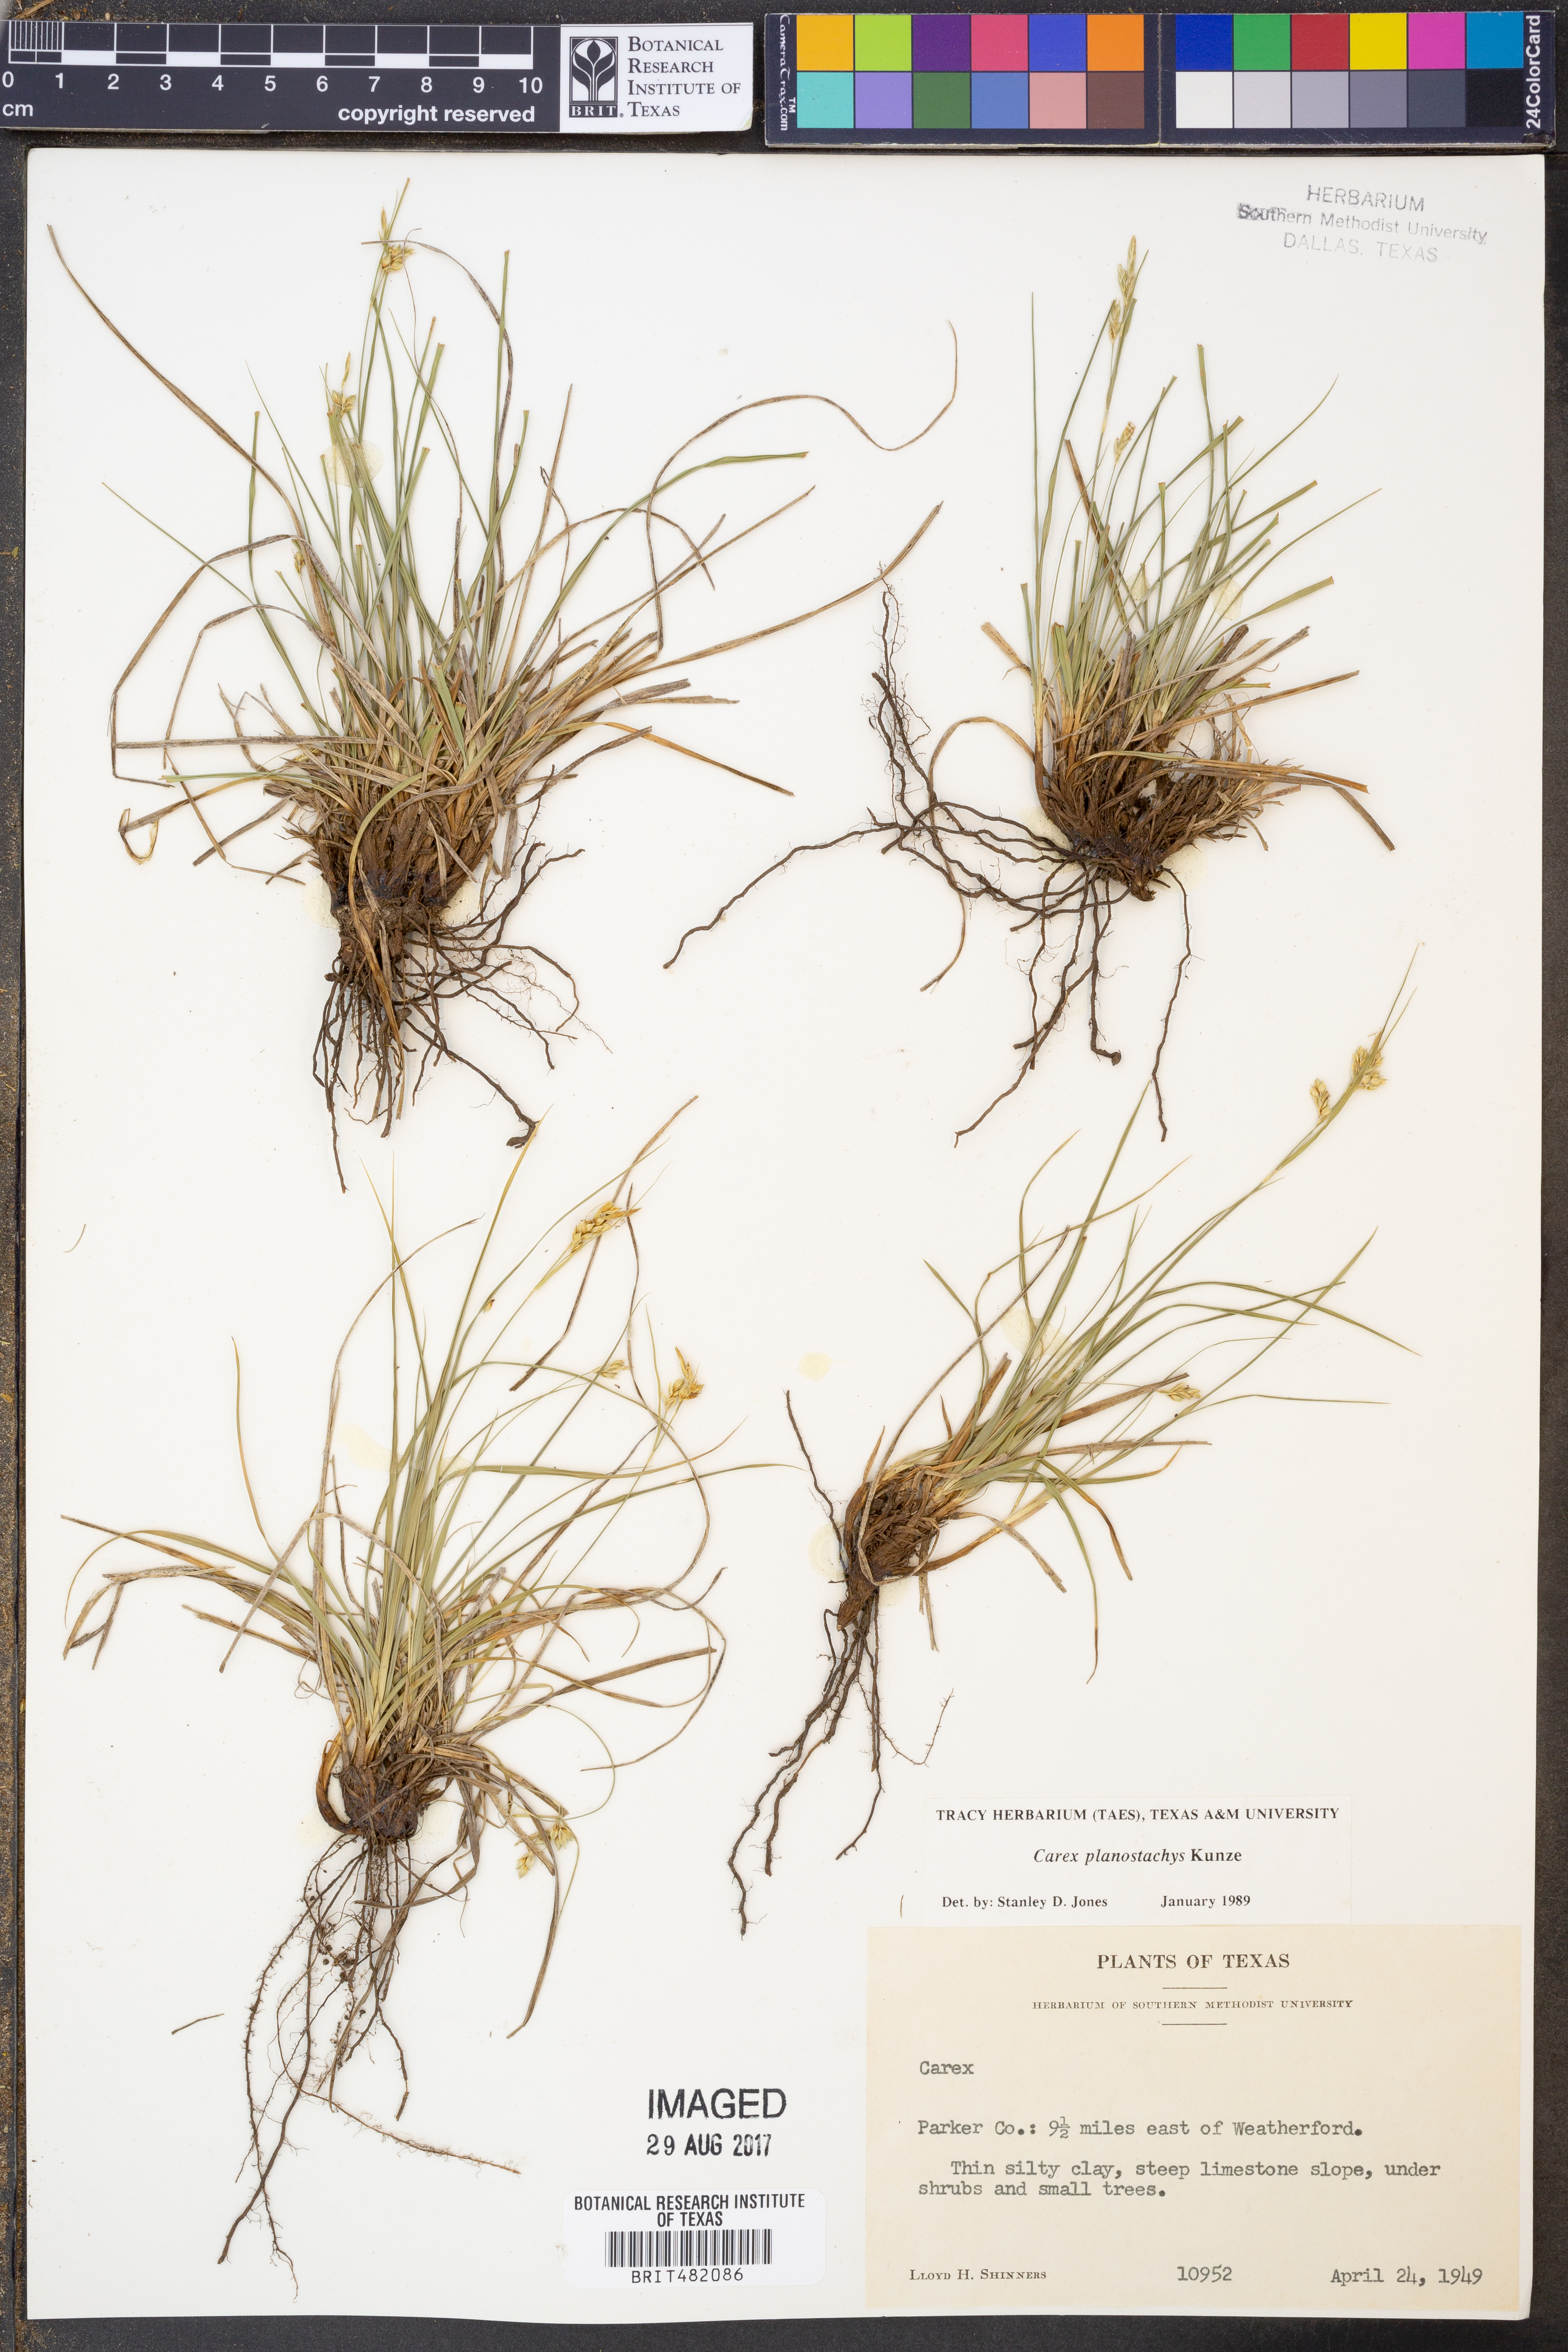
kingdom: Plantae
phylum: Tracheophyta
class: Liliopsida
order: Poales
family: Cyperaceae
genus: Carex
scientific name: Carex planostachys
